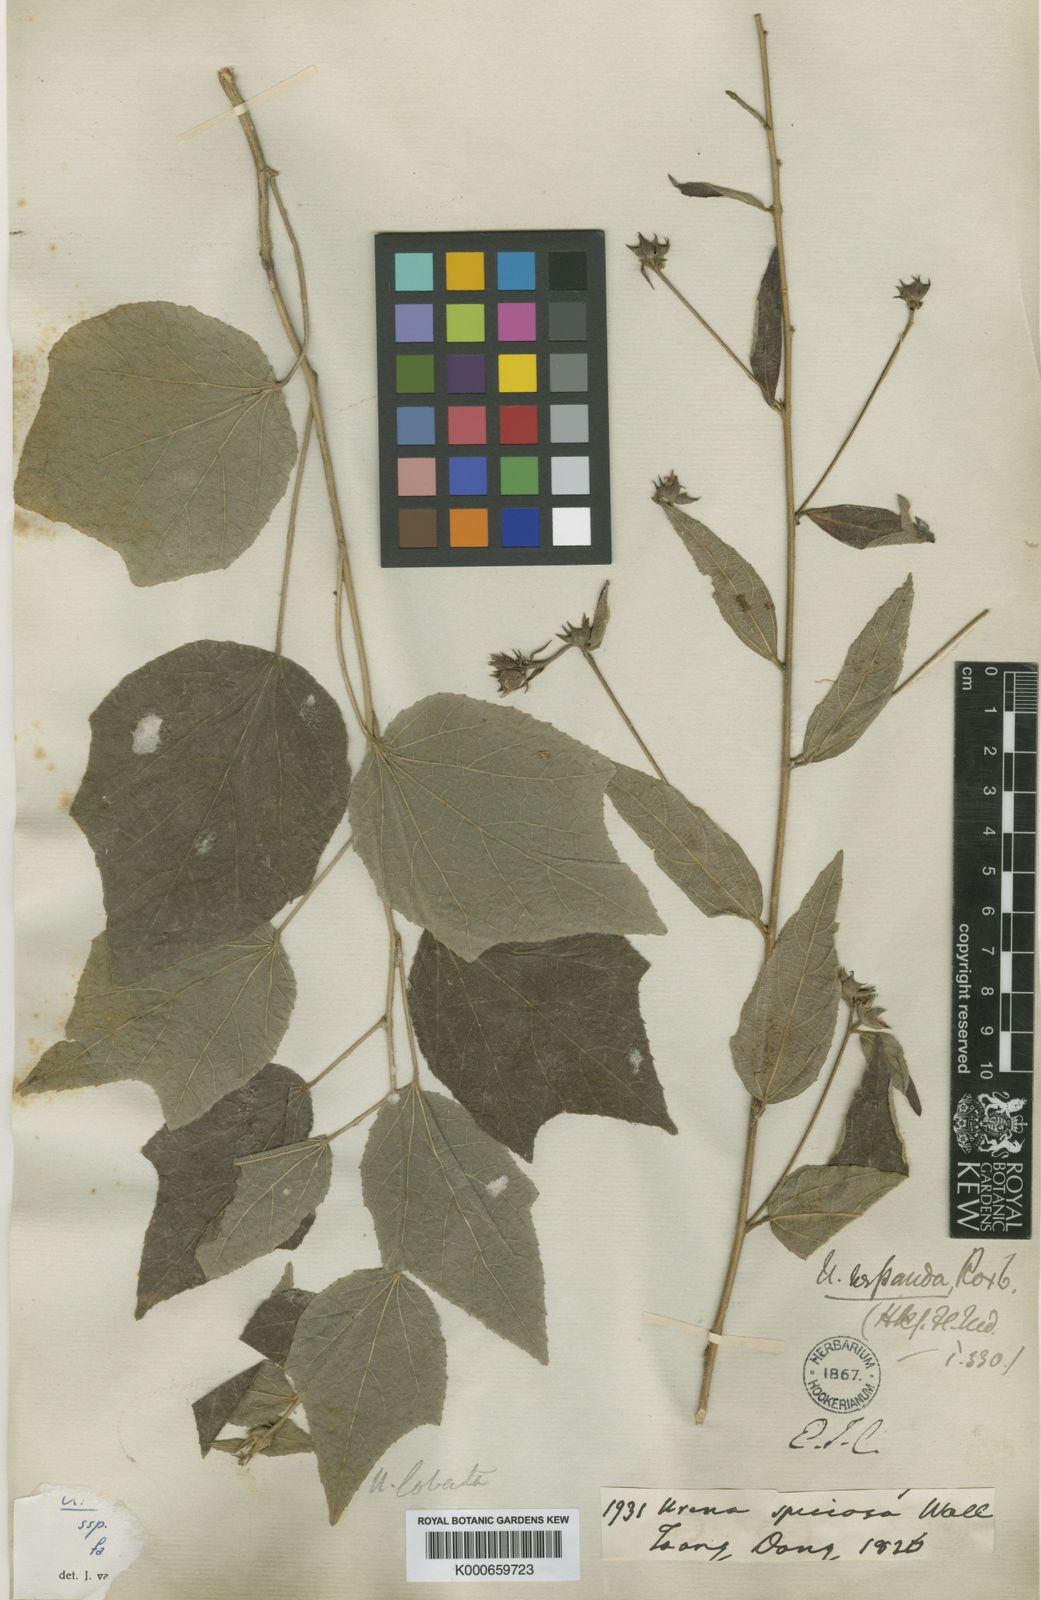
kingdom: Plantae
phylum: Tracheophyta
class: Magnoliopsida
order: Malvales
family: Malvaceae
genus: Urena
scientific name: Urena
